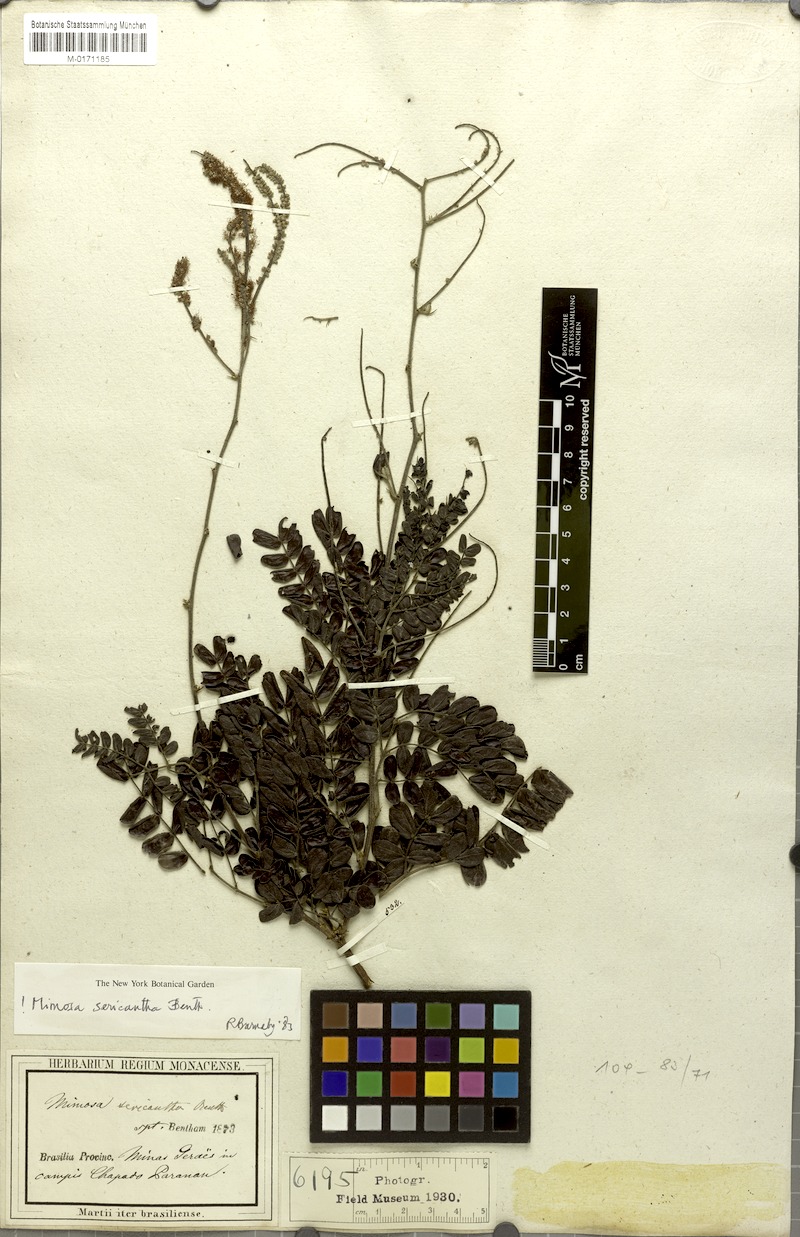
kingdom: Plantae
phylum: Tracheophyta
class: Magnoliopsida
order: Fabales
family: Fabaceae
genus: Mimosa
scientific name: Mimosa sericantha
